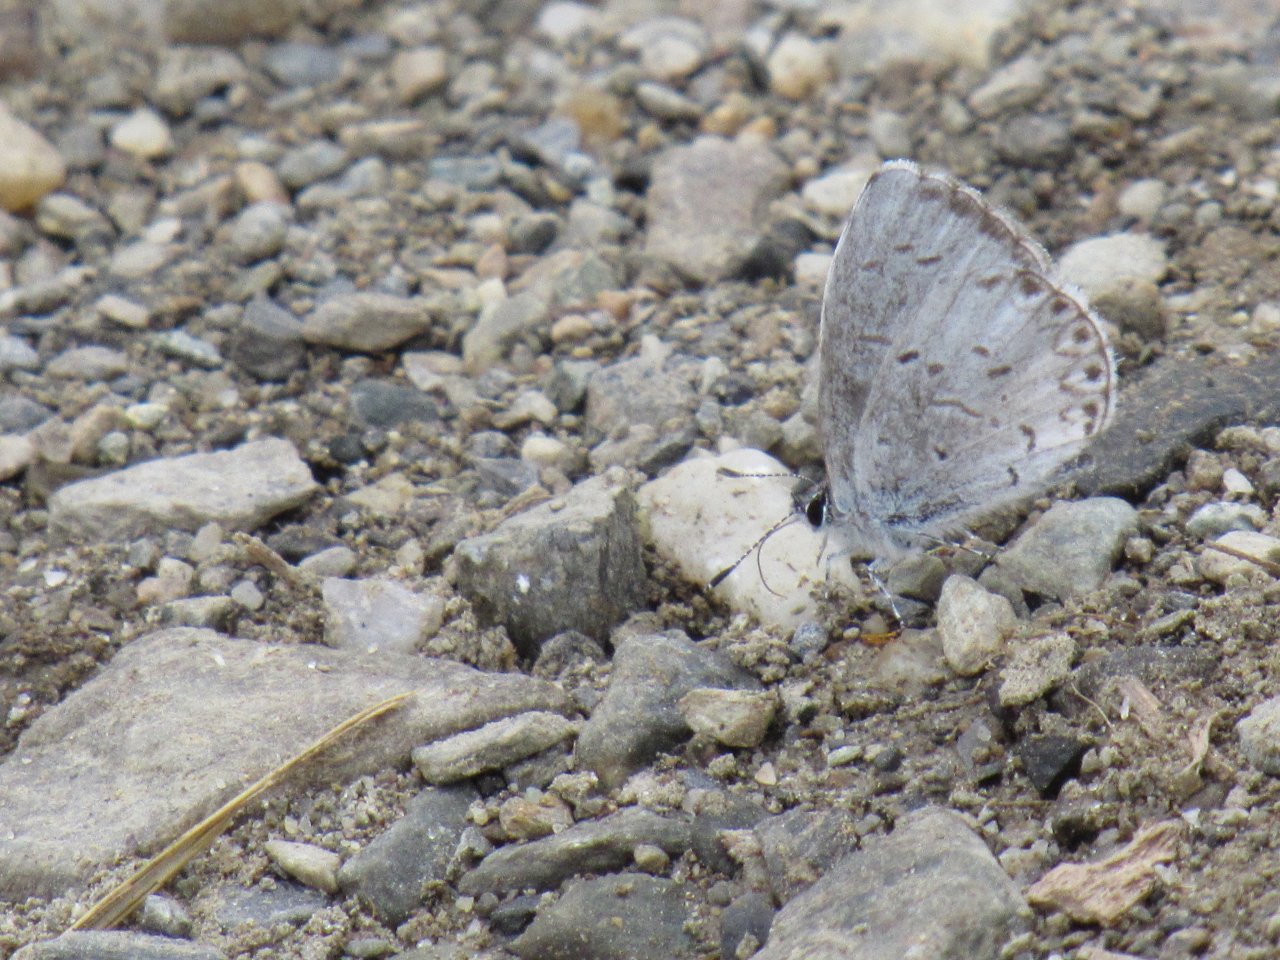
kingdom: Animalia
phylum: Arthropoda
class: Insecta
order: Lepidoptera
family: Lycaenidae
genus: Celastrina
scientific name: Celastrina
